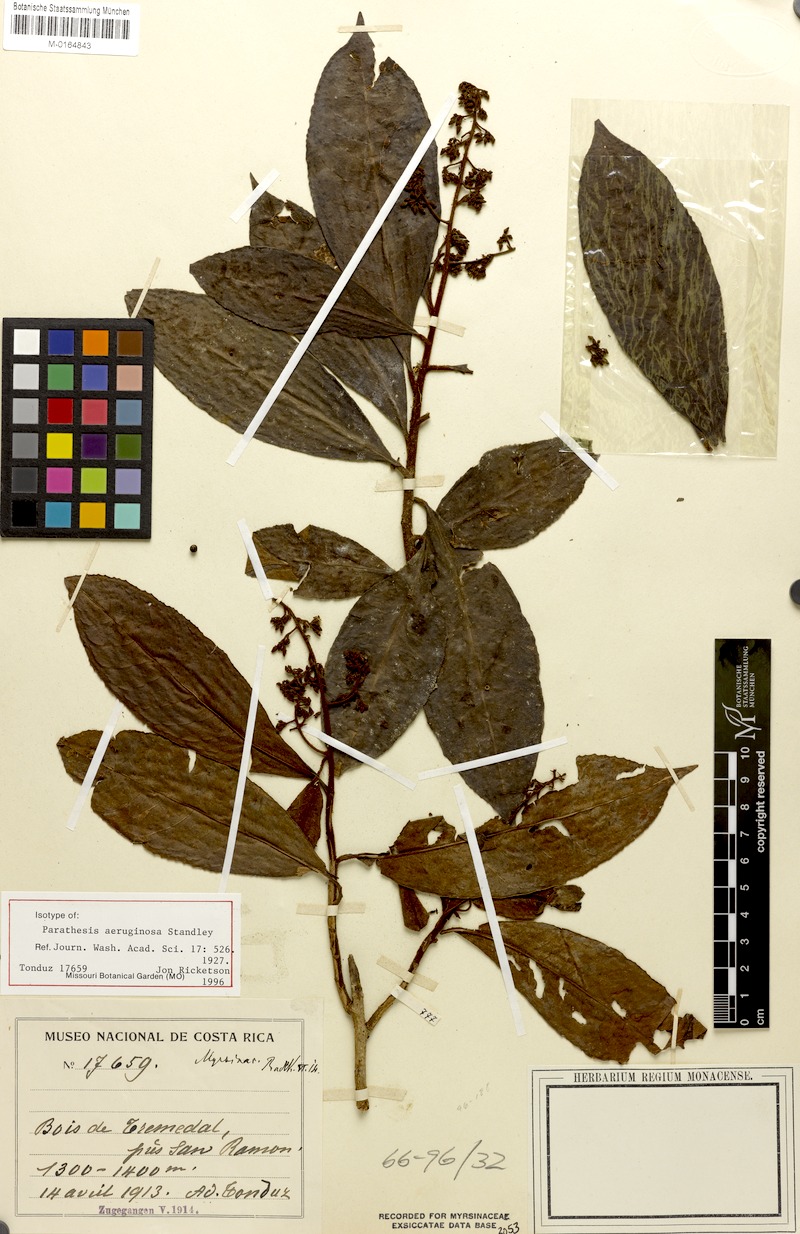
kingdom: Plantae
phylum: Tracheophyta
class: Magnoliopsida
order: Ericales
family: Primulaceae
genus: Parathesis
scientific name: Parathesis aeruginosa
